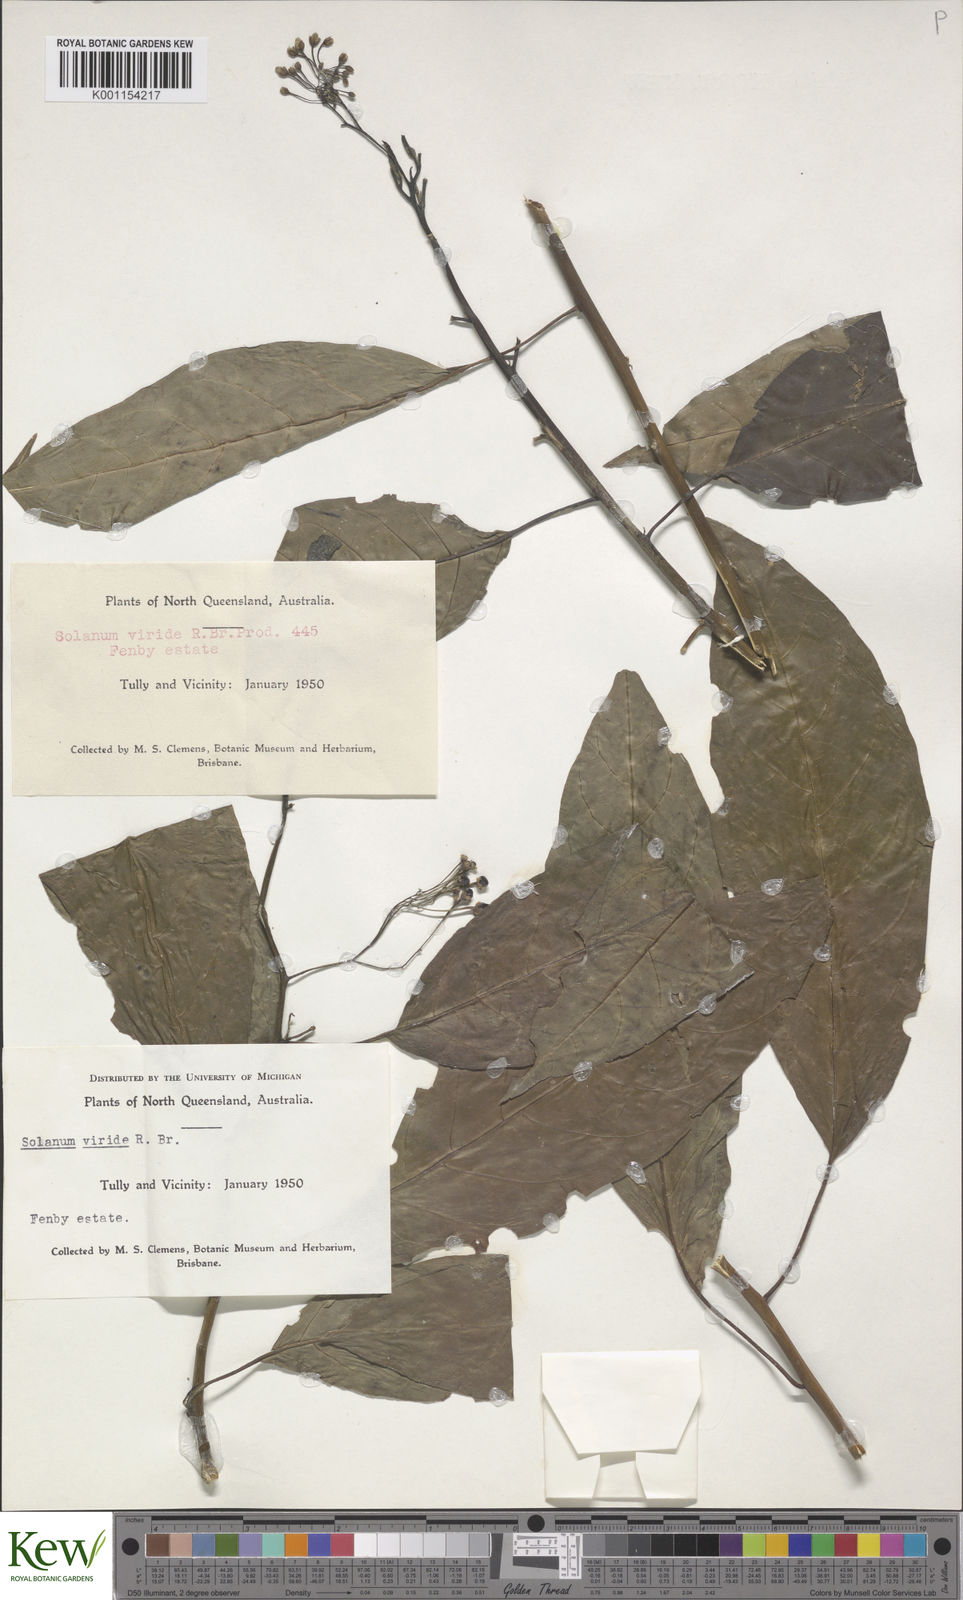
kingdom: Plantae
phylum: Tracheophyta
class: Magnoliopsida
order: Solanales
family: Solanaceae
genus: Solanum
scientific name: Solanum viridifolium
